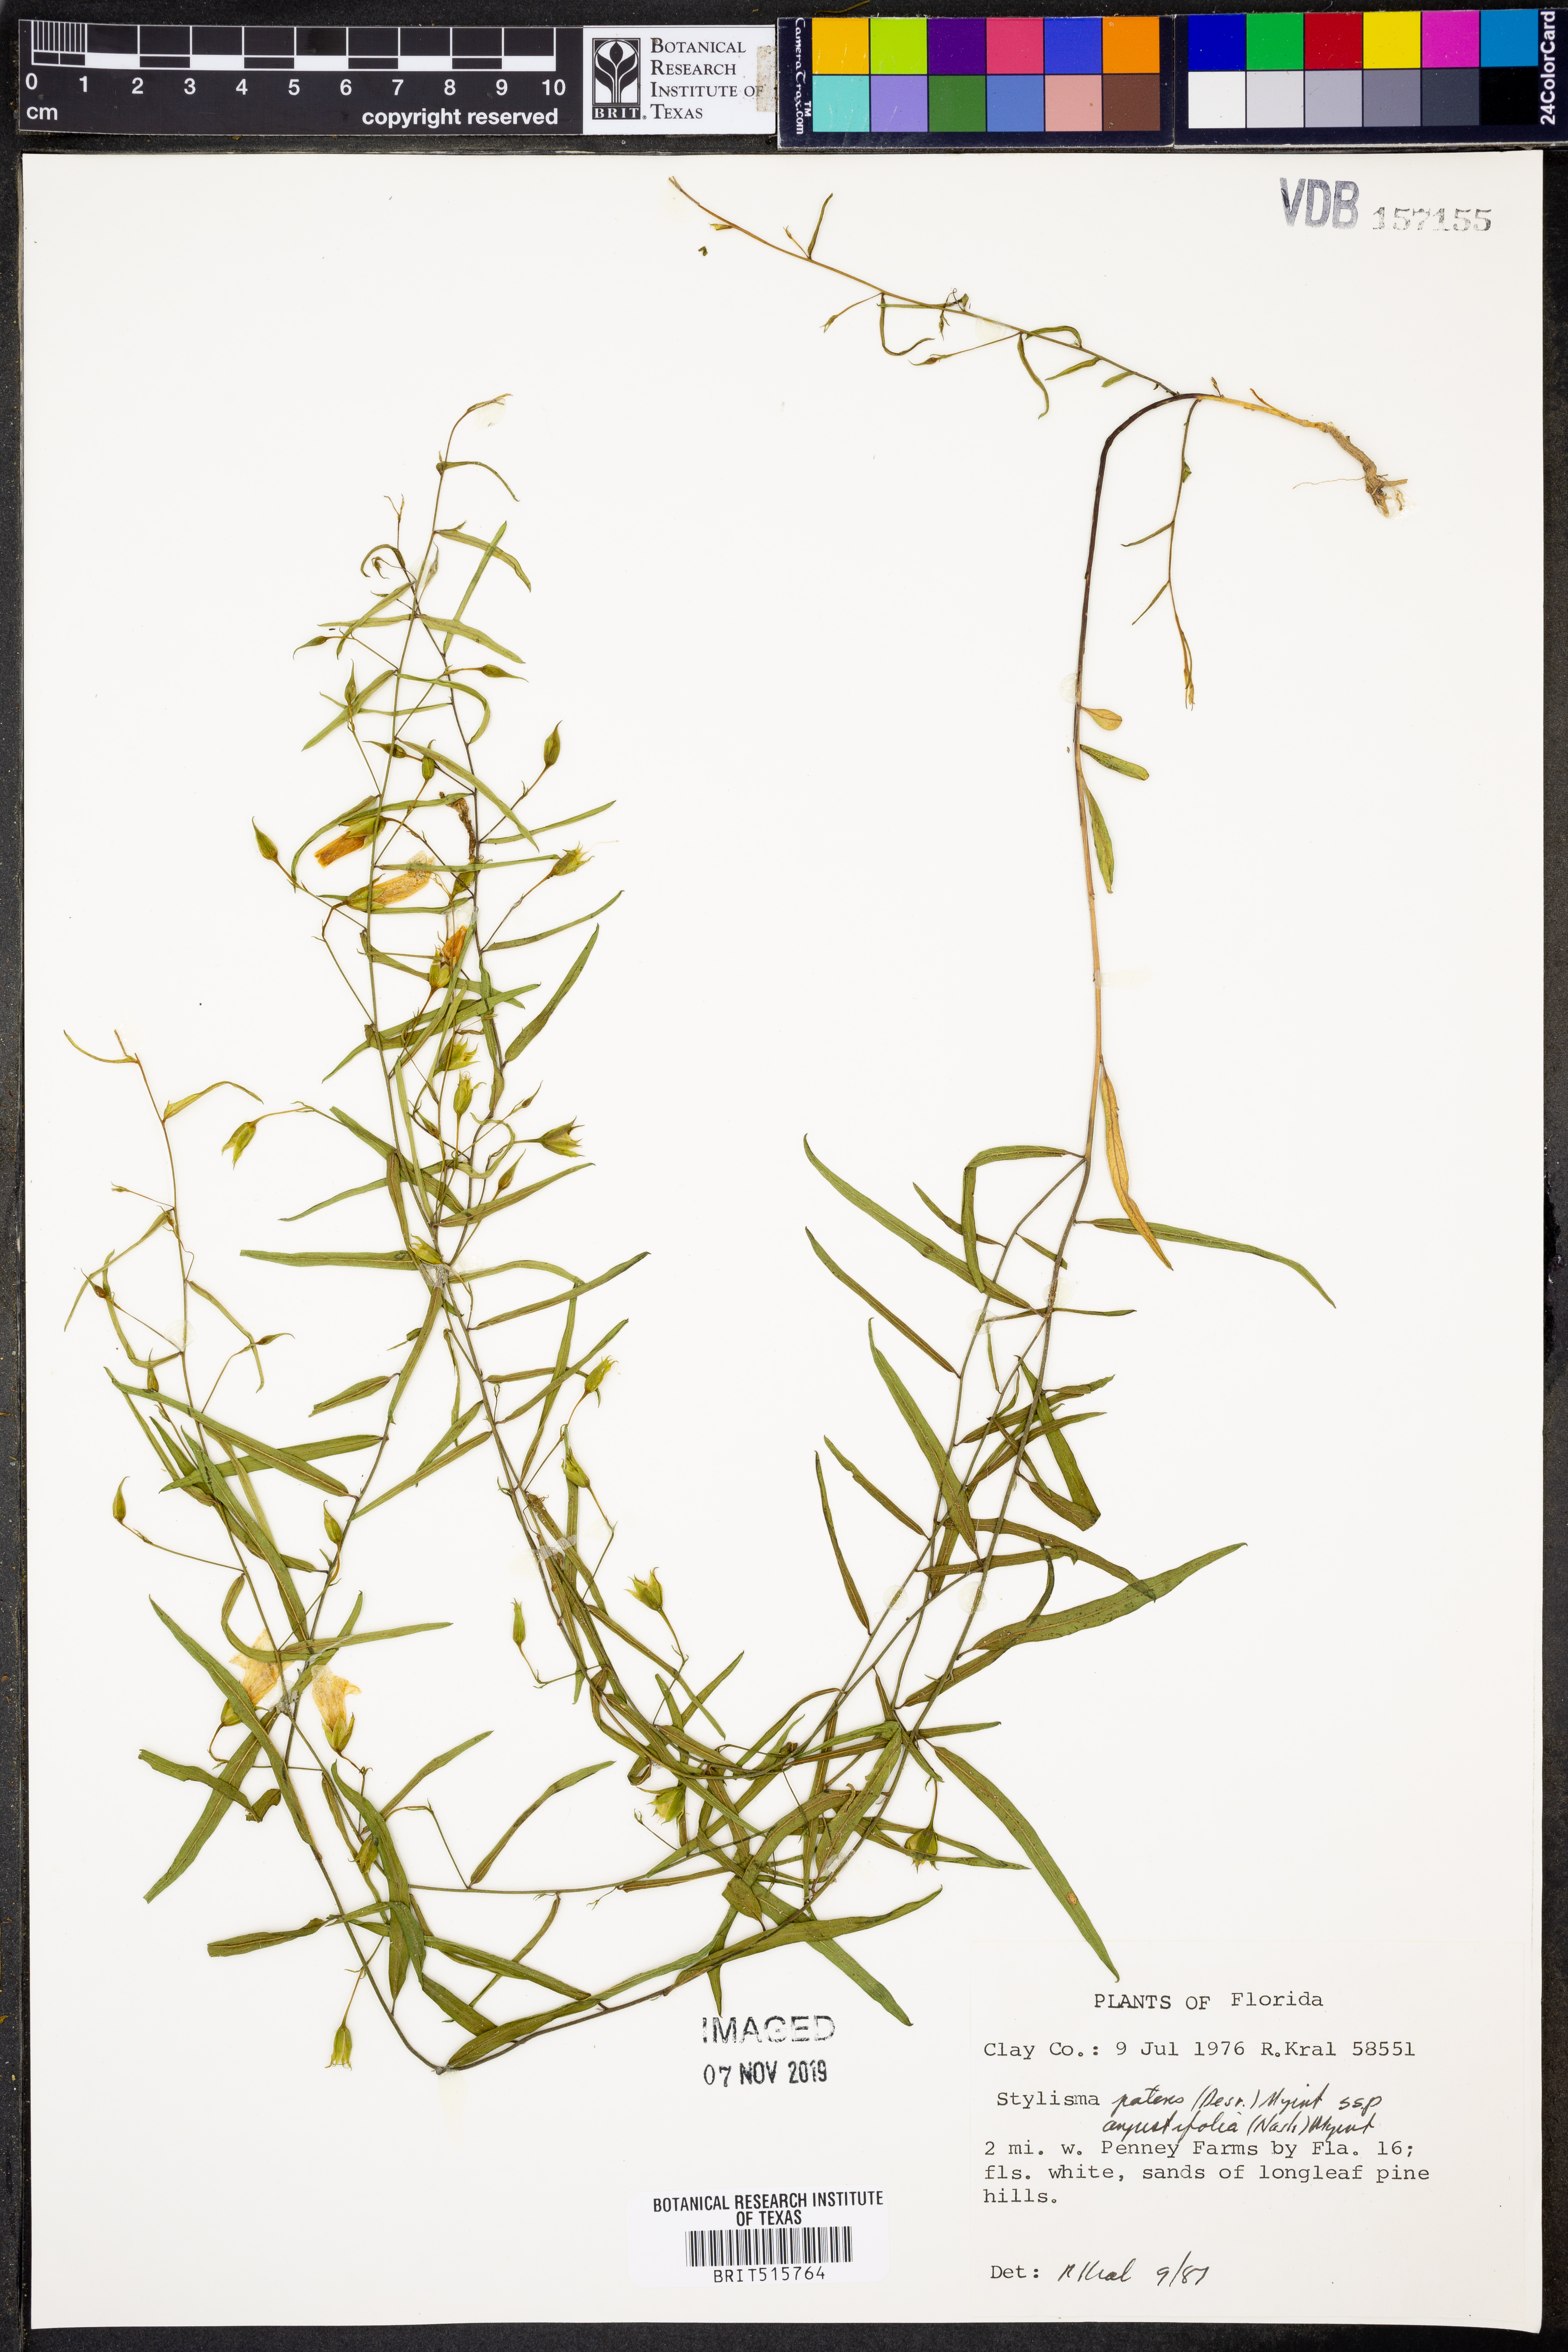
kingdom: Plantae
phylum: Tracheophyta
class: Magnoliopsida
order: Solanales
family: Convolvulaceae
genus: Stylisma
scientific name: Stylisma patens
